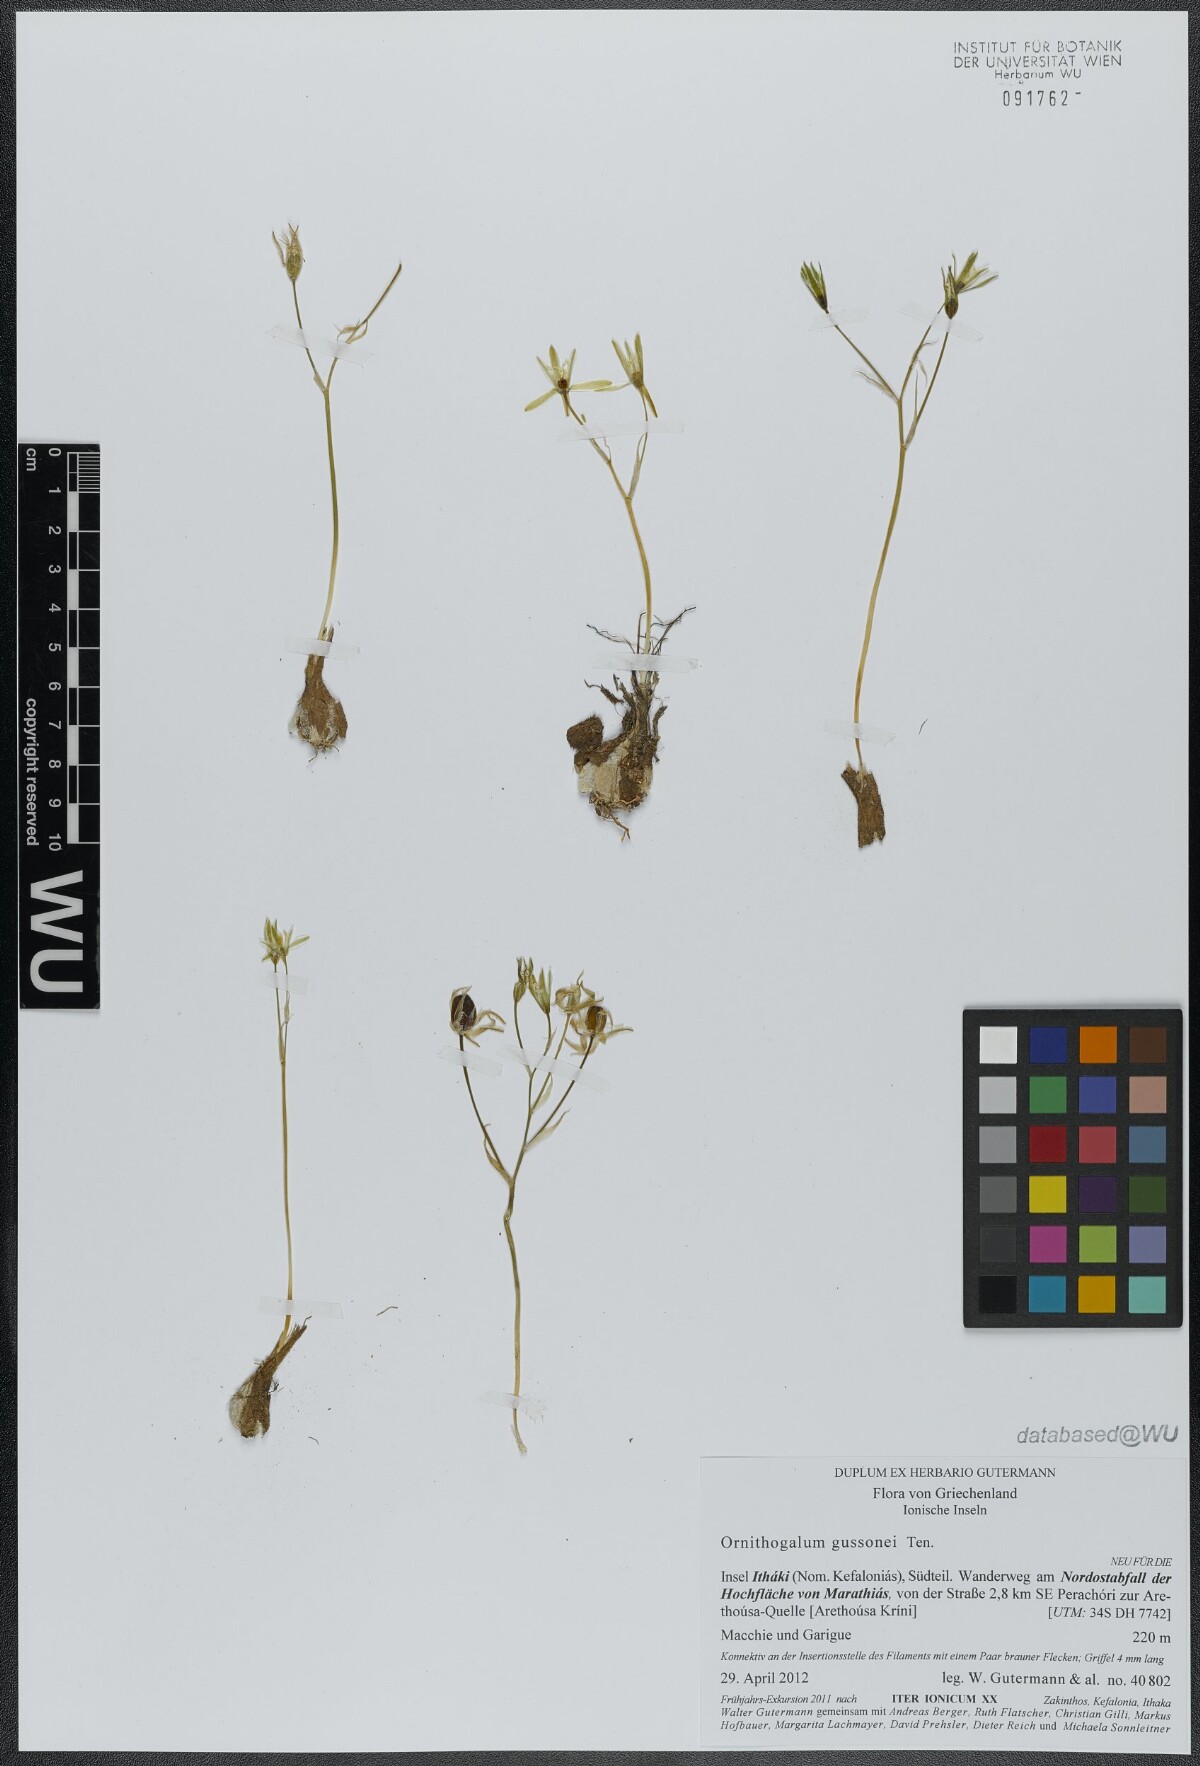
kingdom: Plantae
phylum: Tracheophyta
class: Liliopsida
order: Asparagales
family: Asparagaceae
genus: Ornithogalum
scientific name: Ornithogalum gussonei
